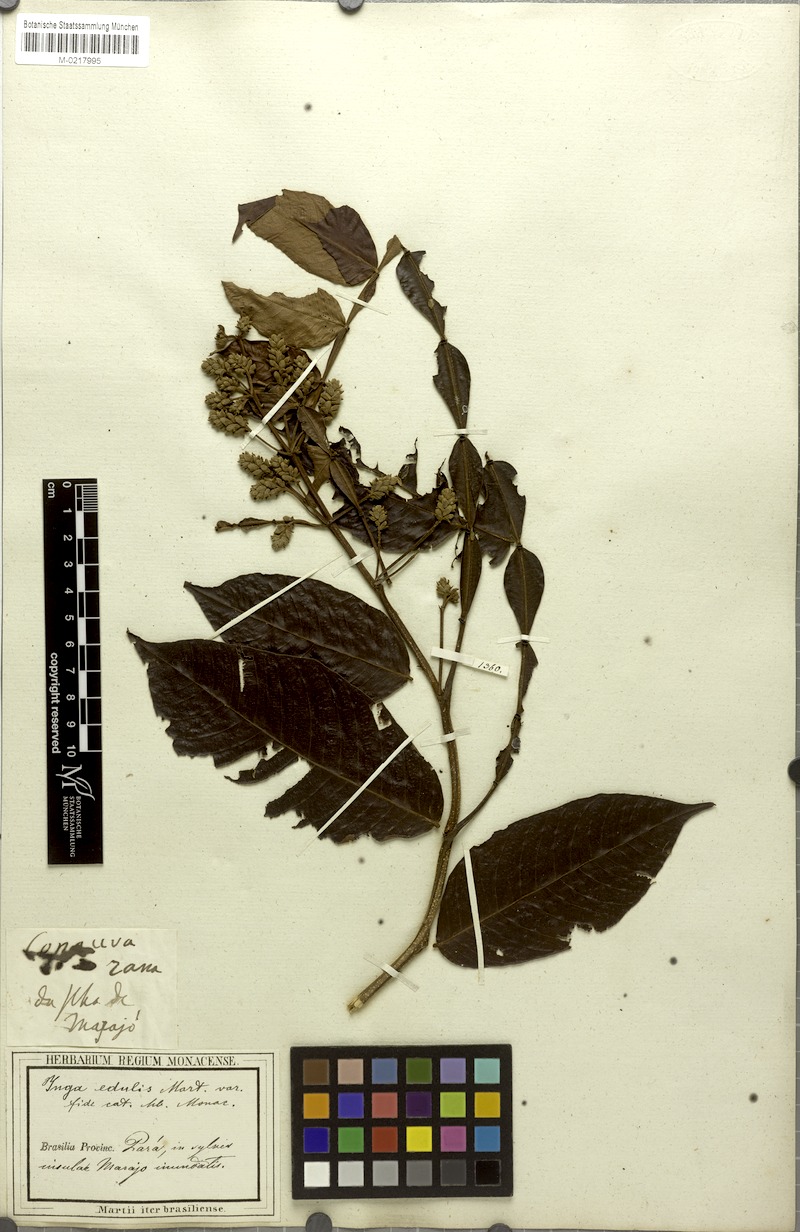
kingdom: Plantae
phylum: Tracheophyta
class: Magnoliopsida
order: Fabales
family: Fabaceae
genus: Inga
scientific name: Inga edulis
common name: Ice cream bean
